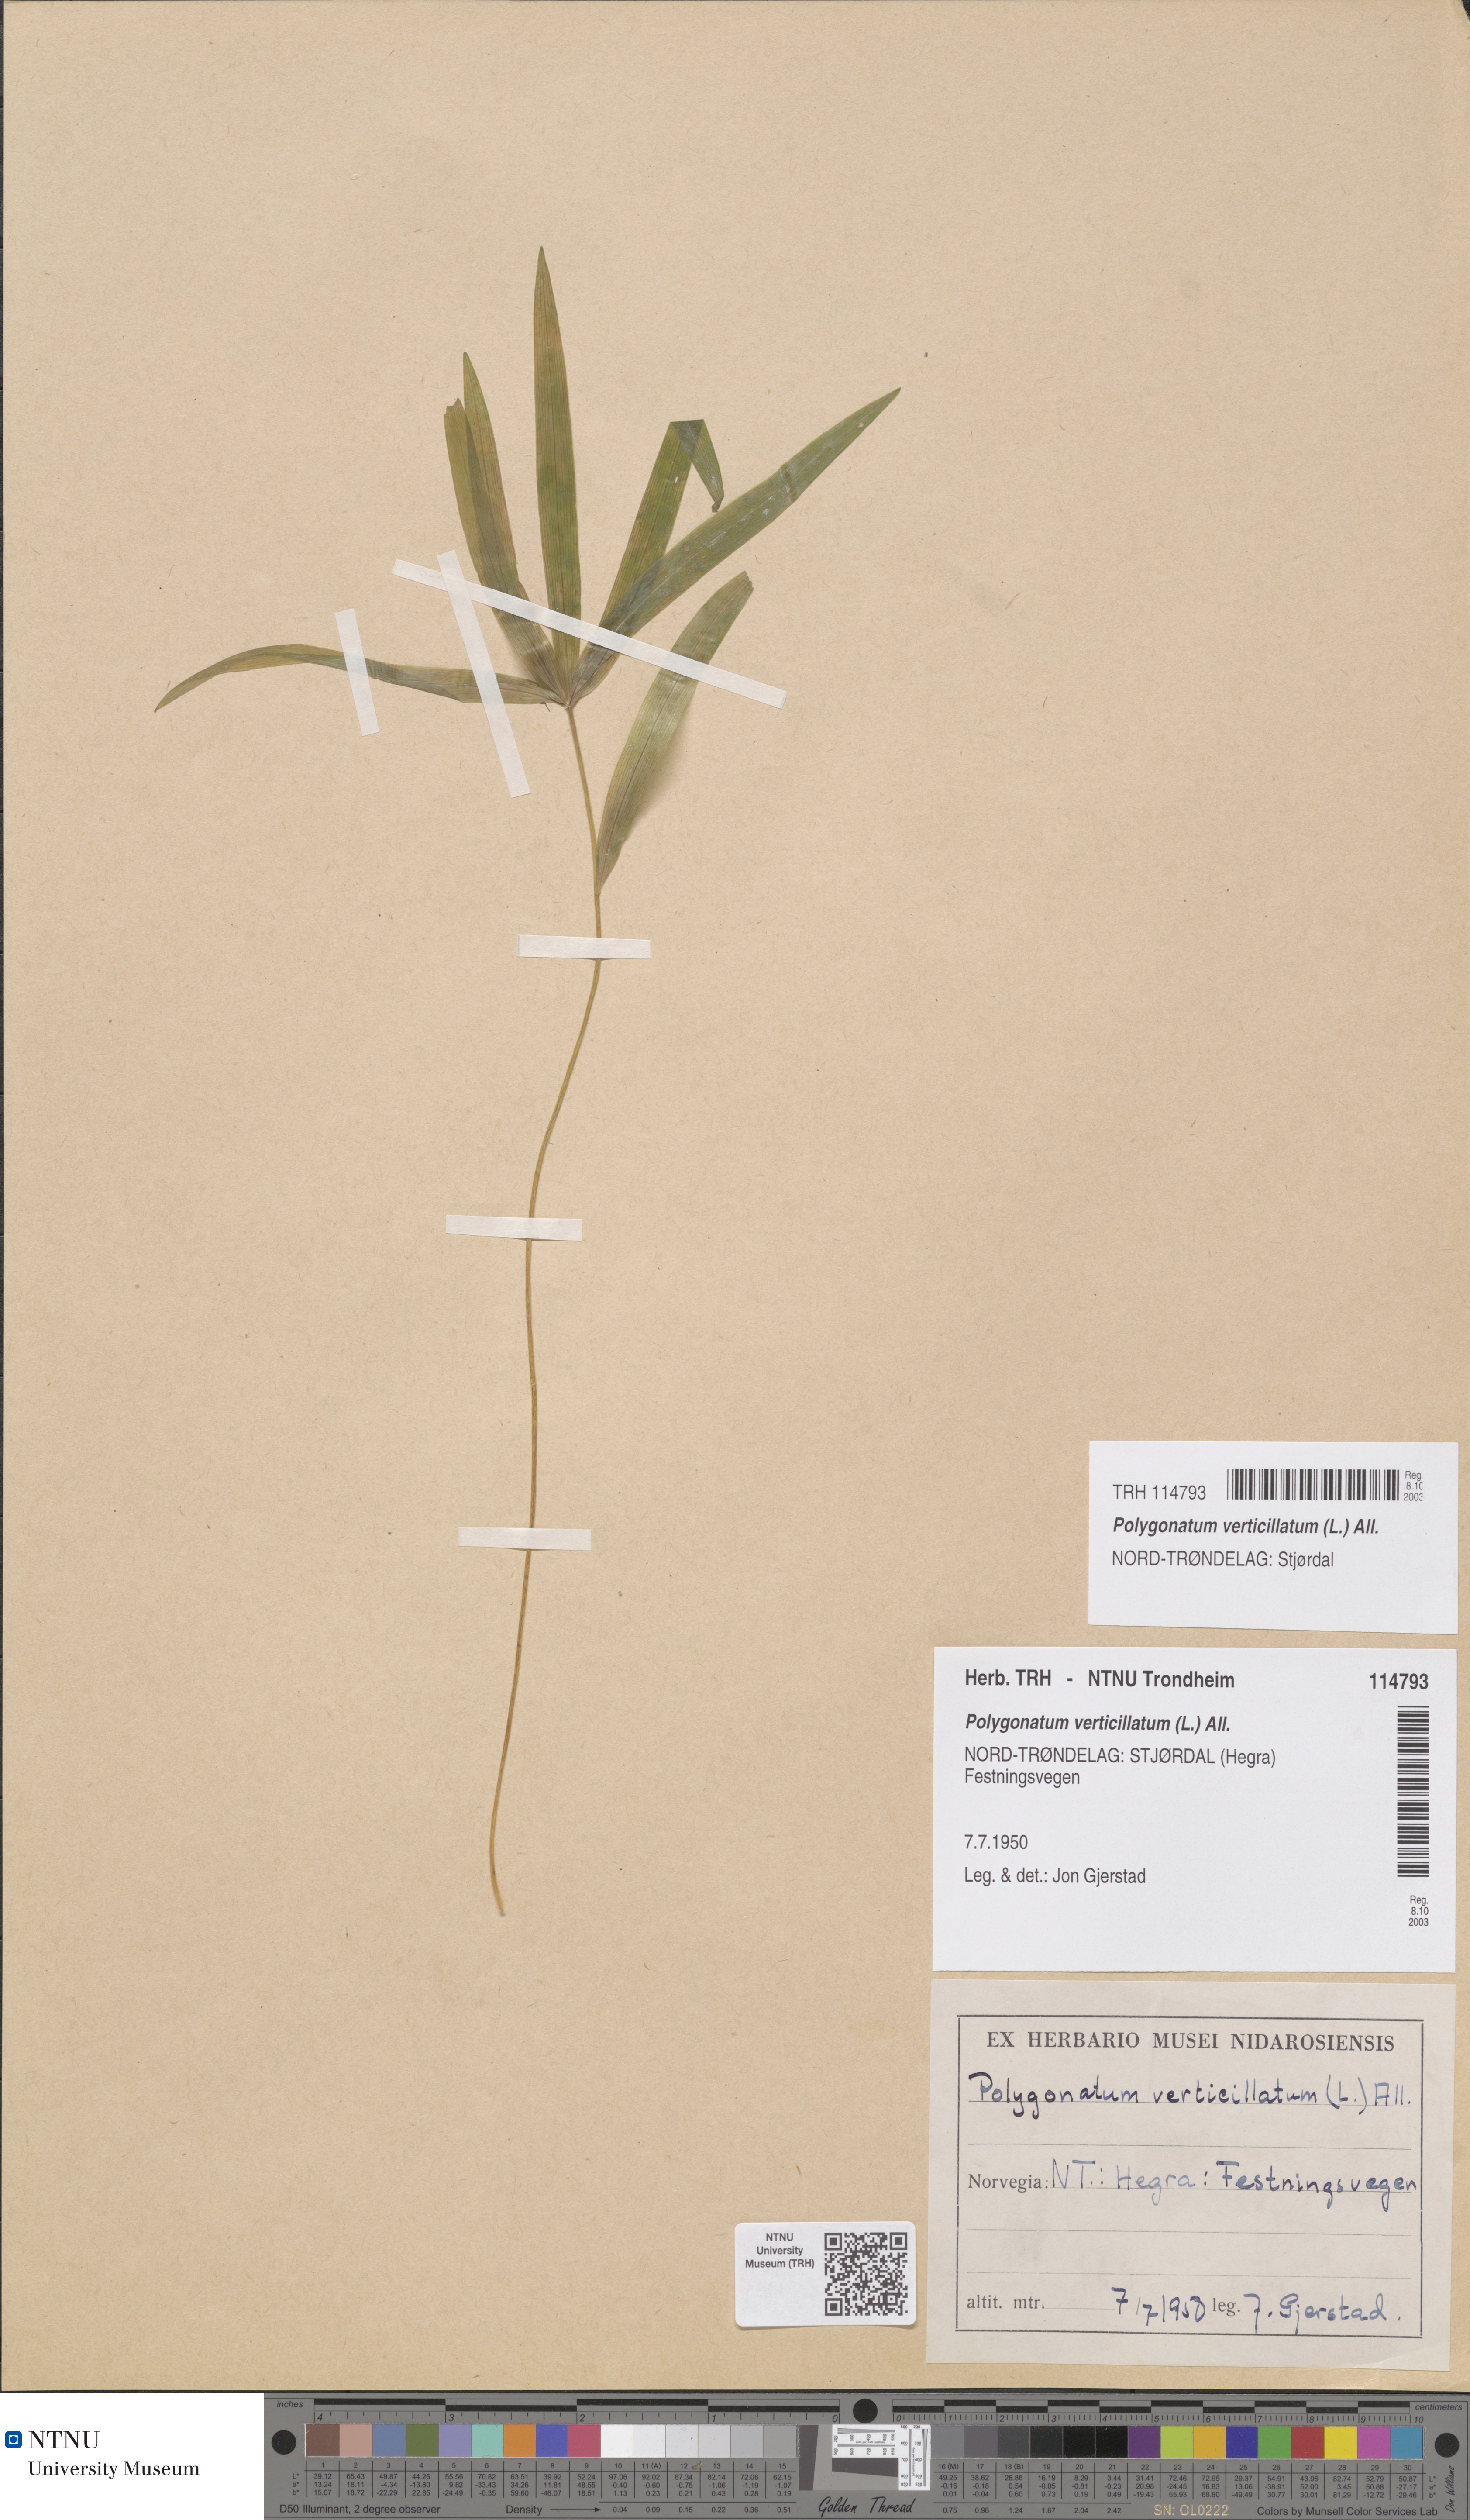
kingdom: Plantae
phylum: Tracheophyta
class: Liliopsida
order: Asparagales
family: Asparagaceae
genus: Polygonatum
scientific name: Polygonatum verticillatum
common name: Whorled solomon's-seal
